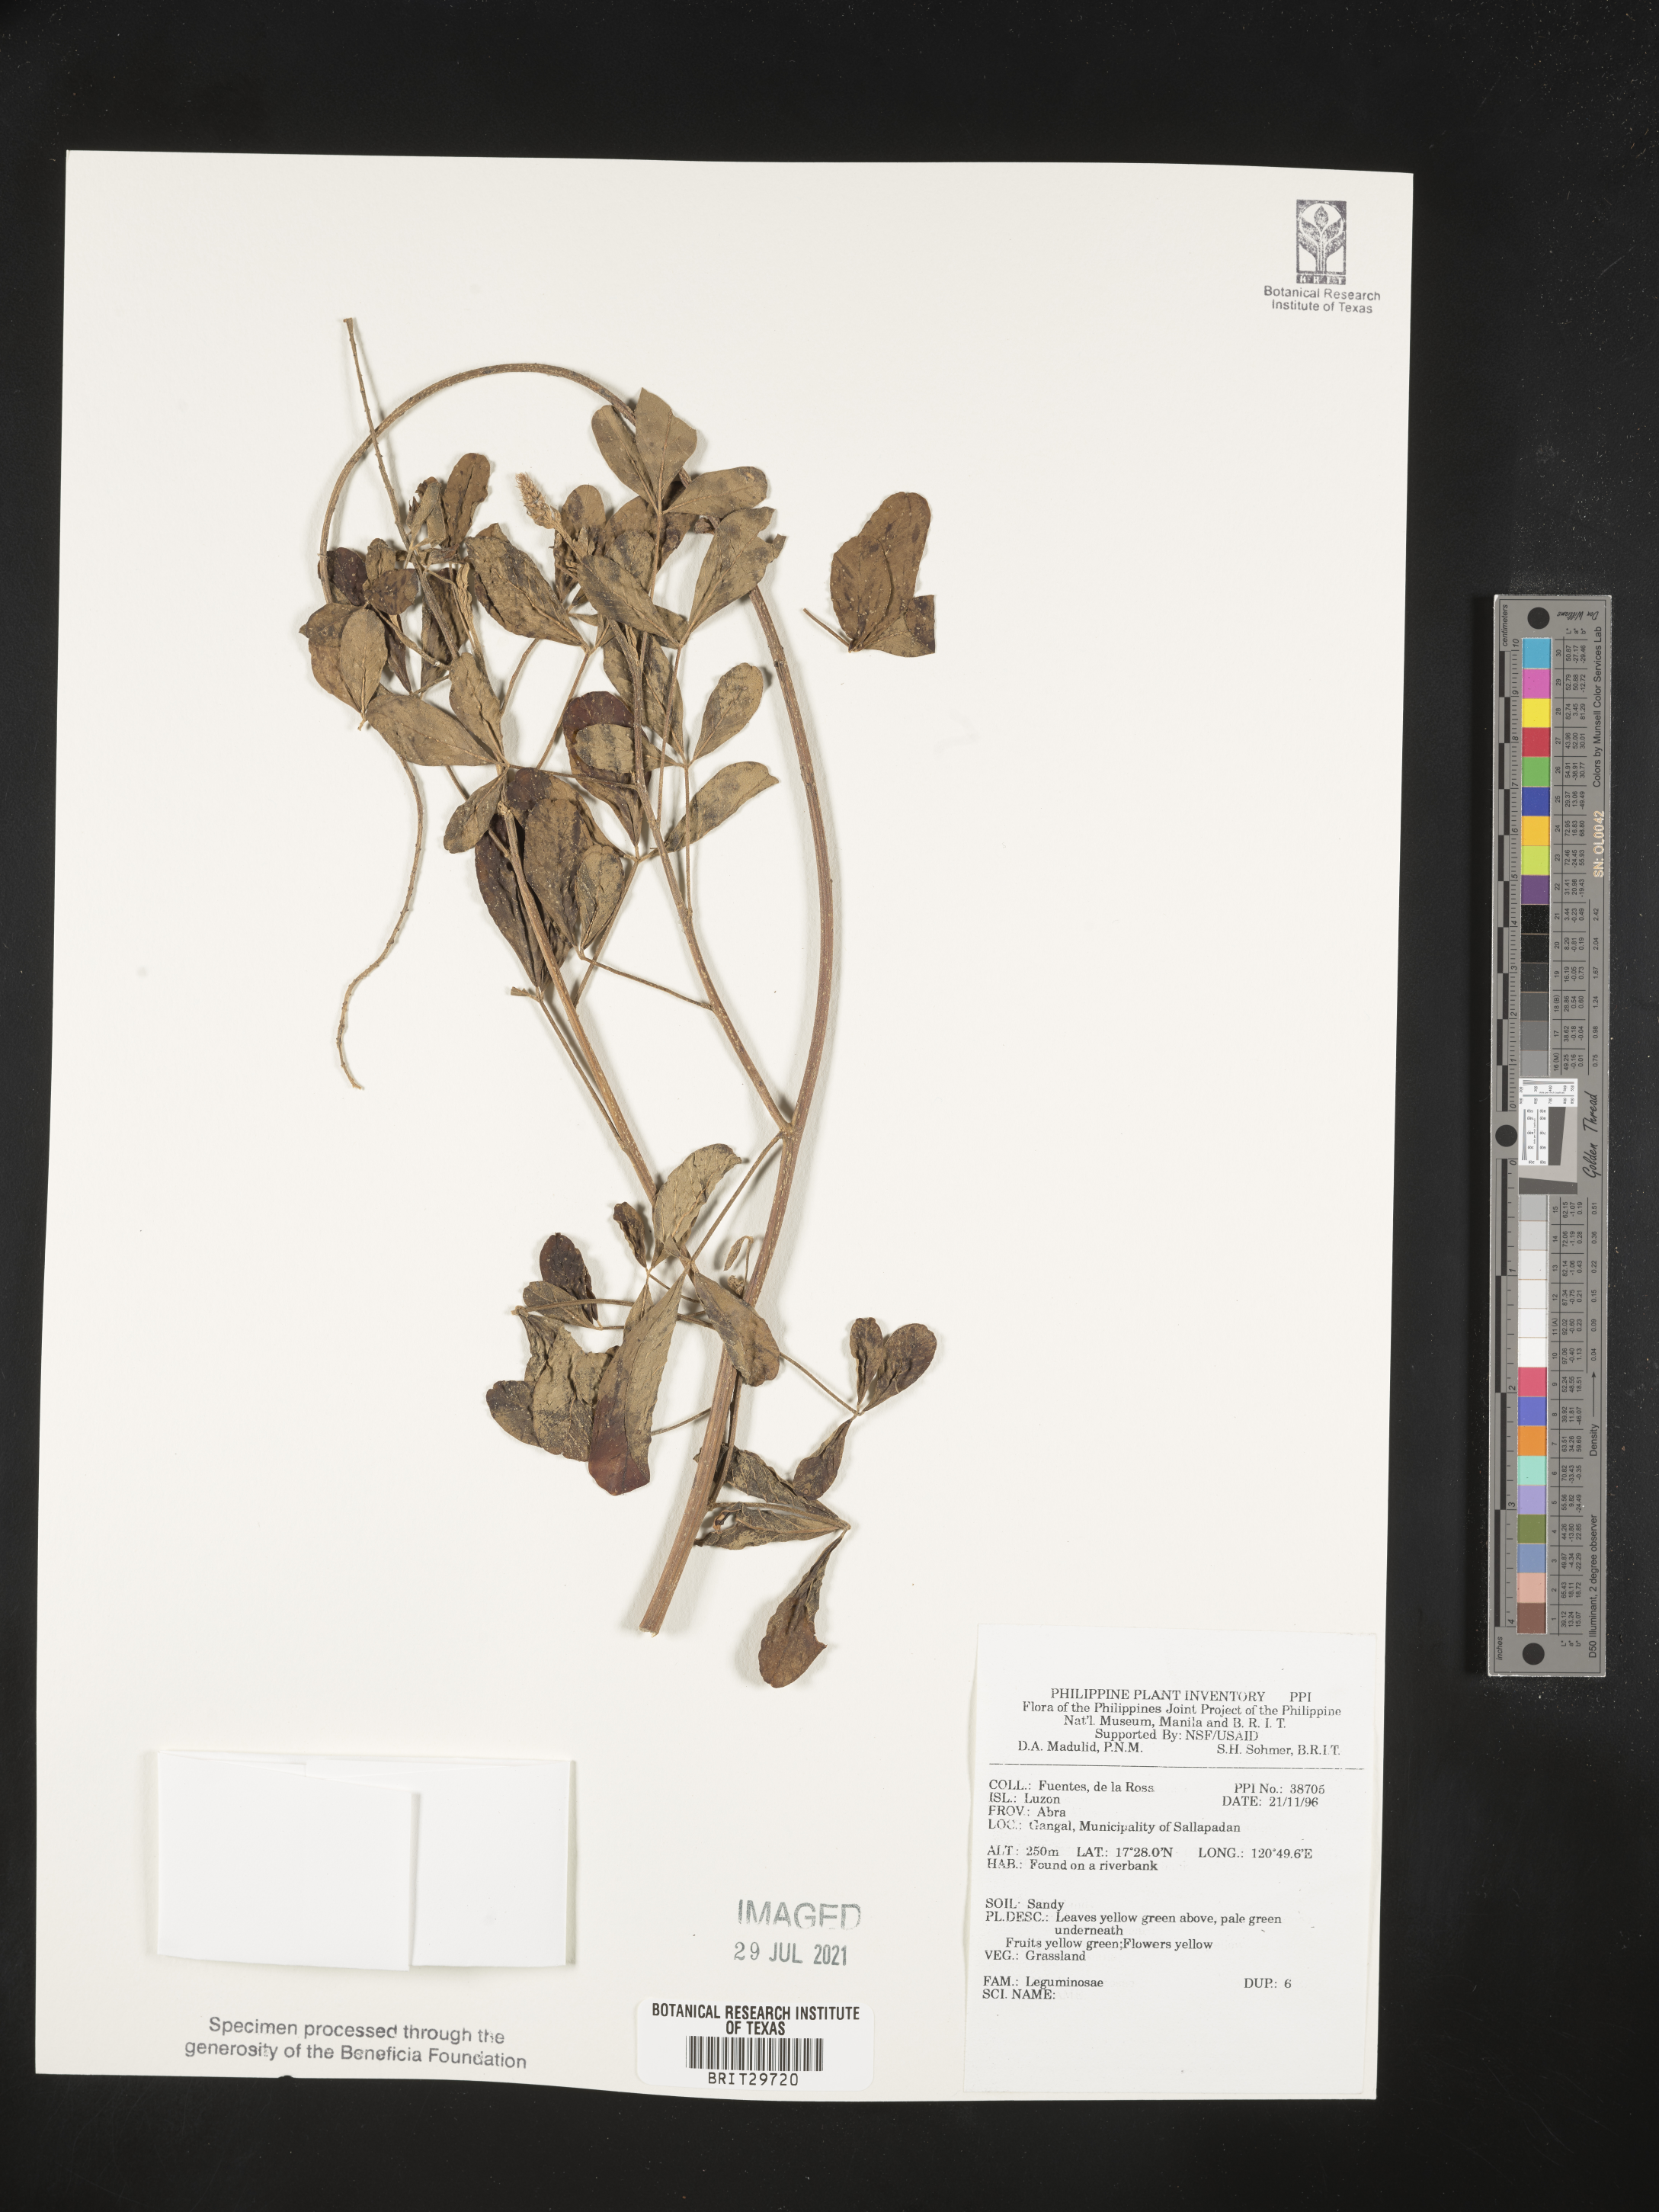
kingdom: Plantae
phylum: Tracheophyta
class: Magnoliopsida
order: Fabales
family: Fabaceae
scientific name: Fabaceae
